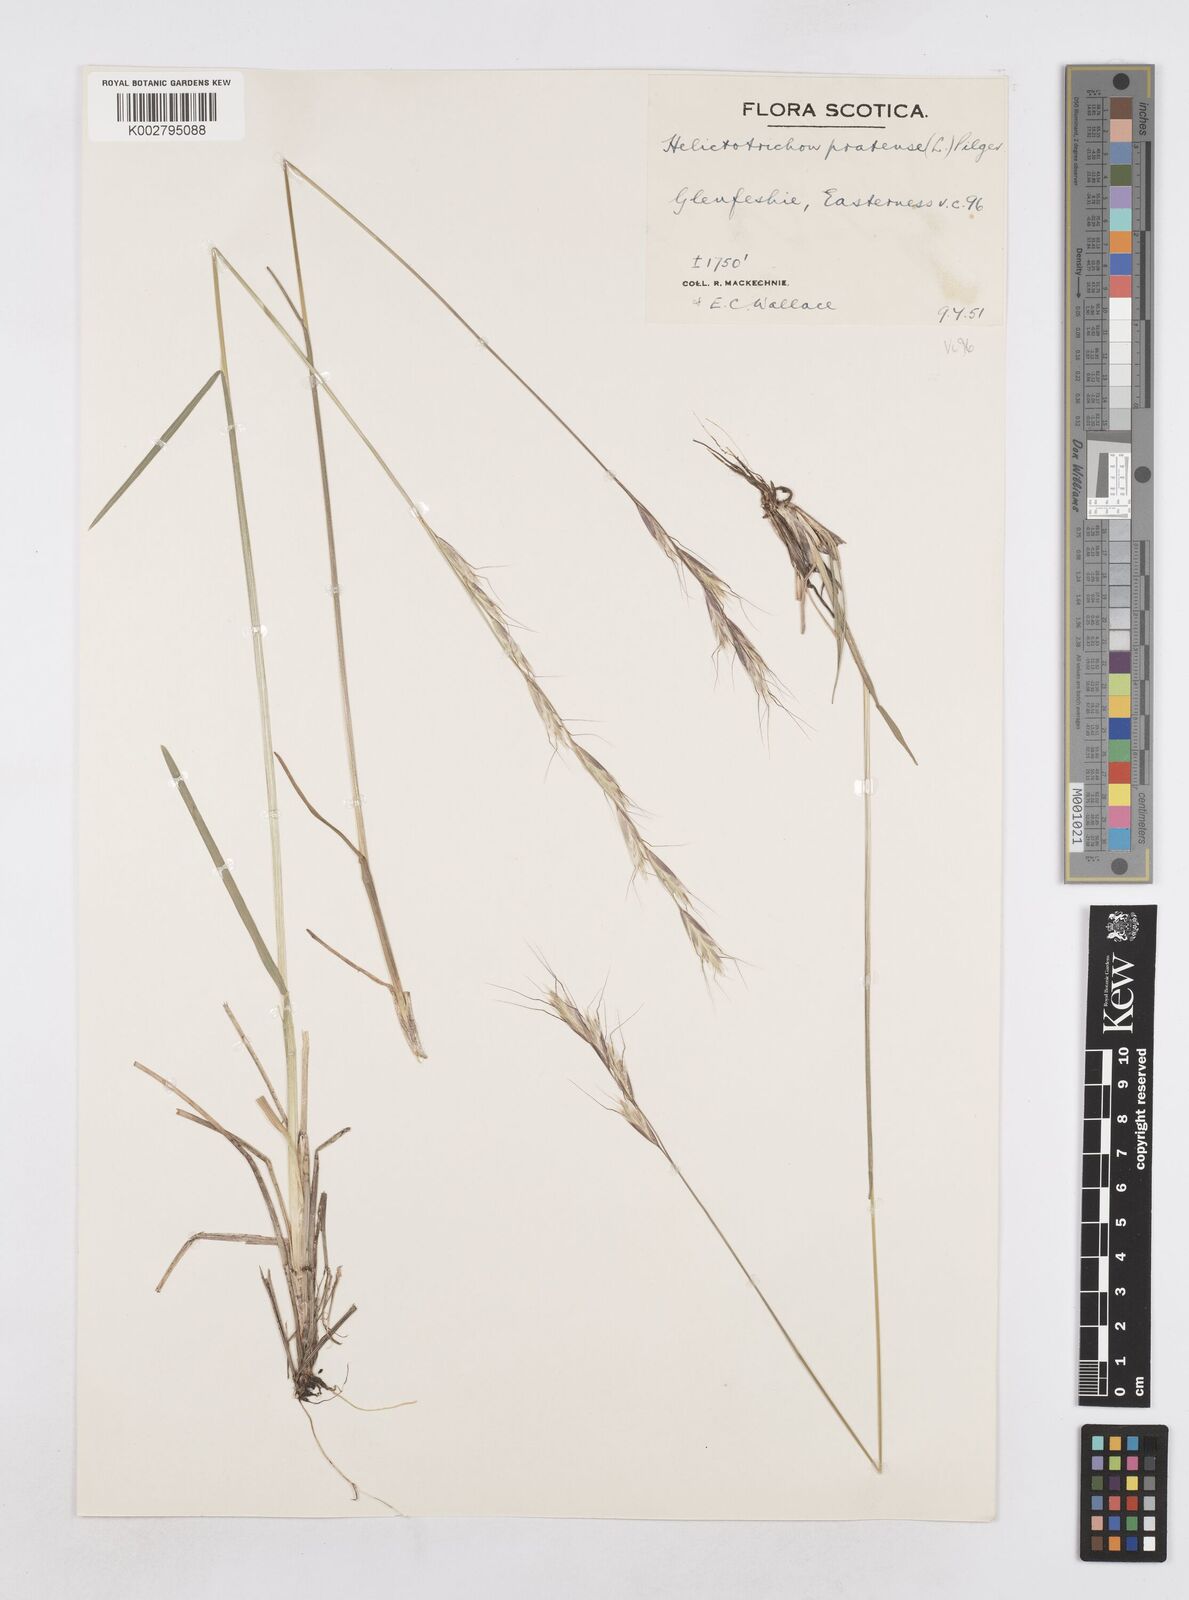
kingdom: Plantae
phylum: Tracheophyta
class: Liliopsida
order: Poales
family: Poaceae
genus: Helictochloa
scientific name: Helictochloa pratensis
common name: Meadow oat grass
